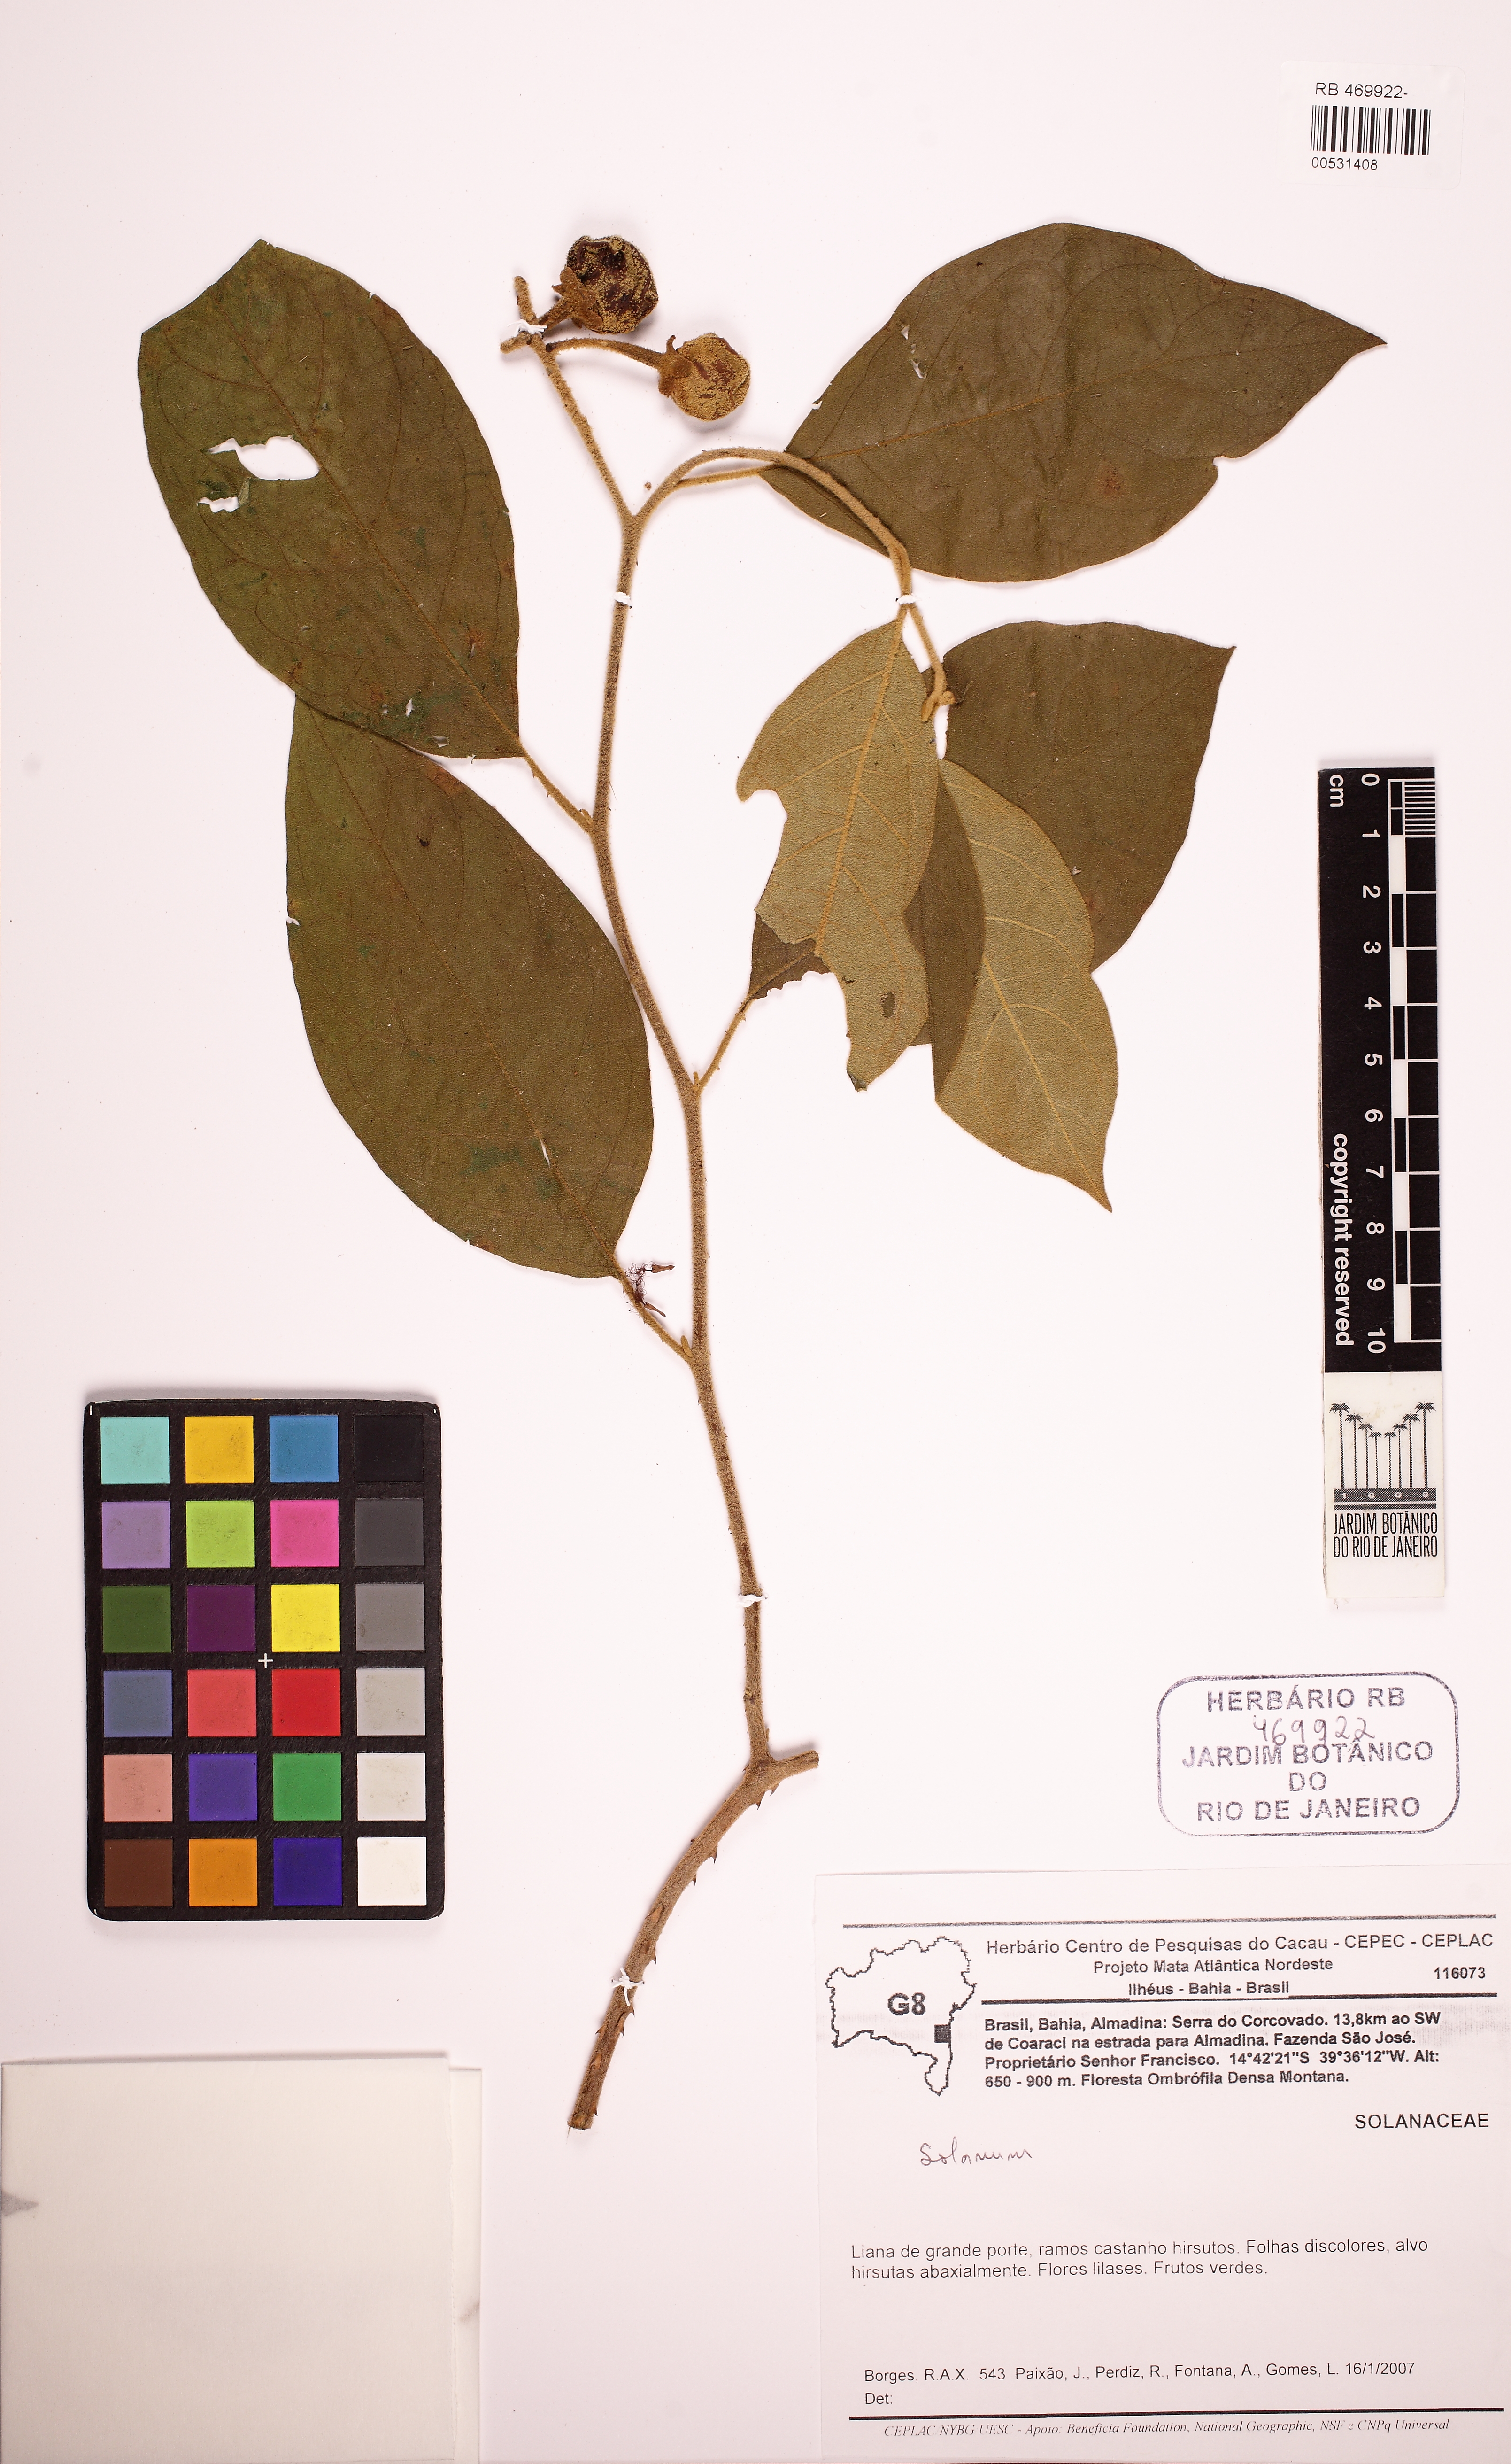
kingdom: Plantae
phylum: Tracheophyta
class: Magnoliopsida
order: Solanales
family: Solanaceae
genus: Solanum
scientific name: Solanum depauperatum
